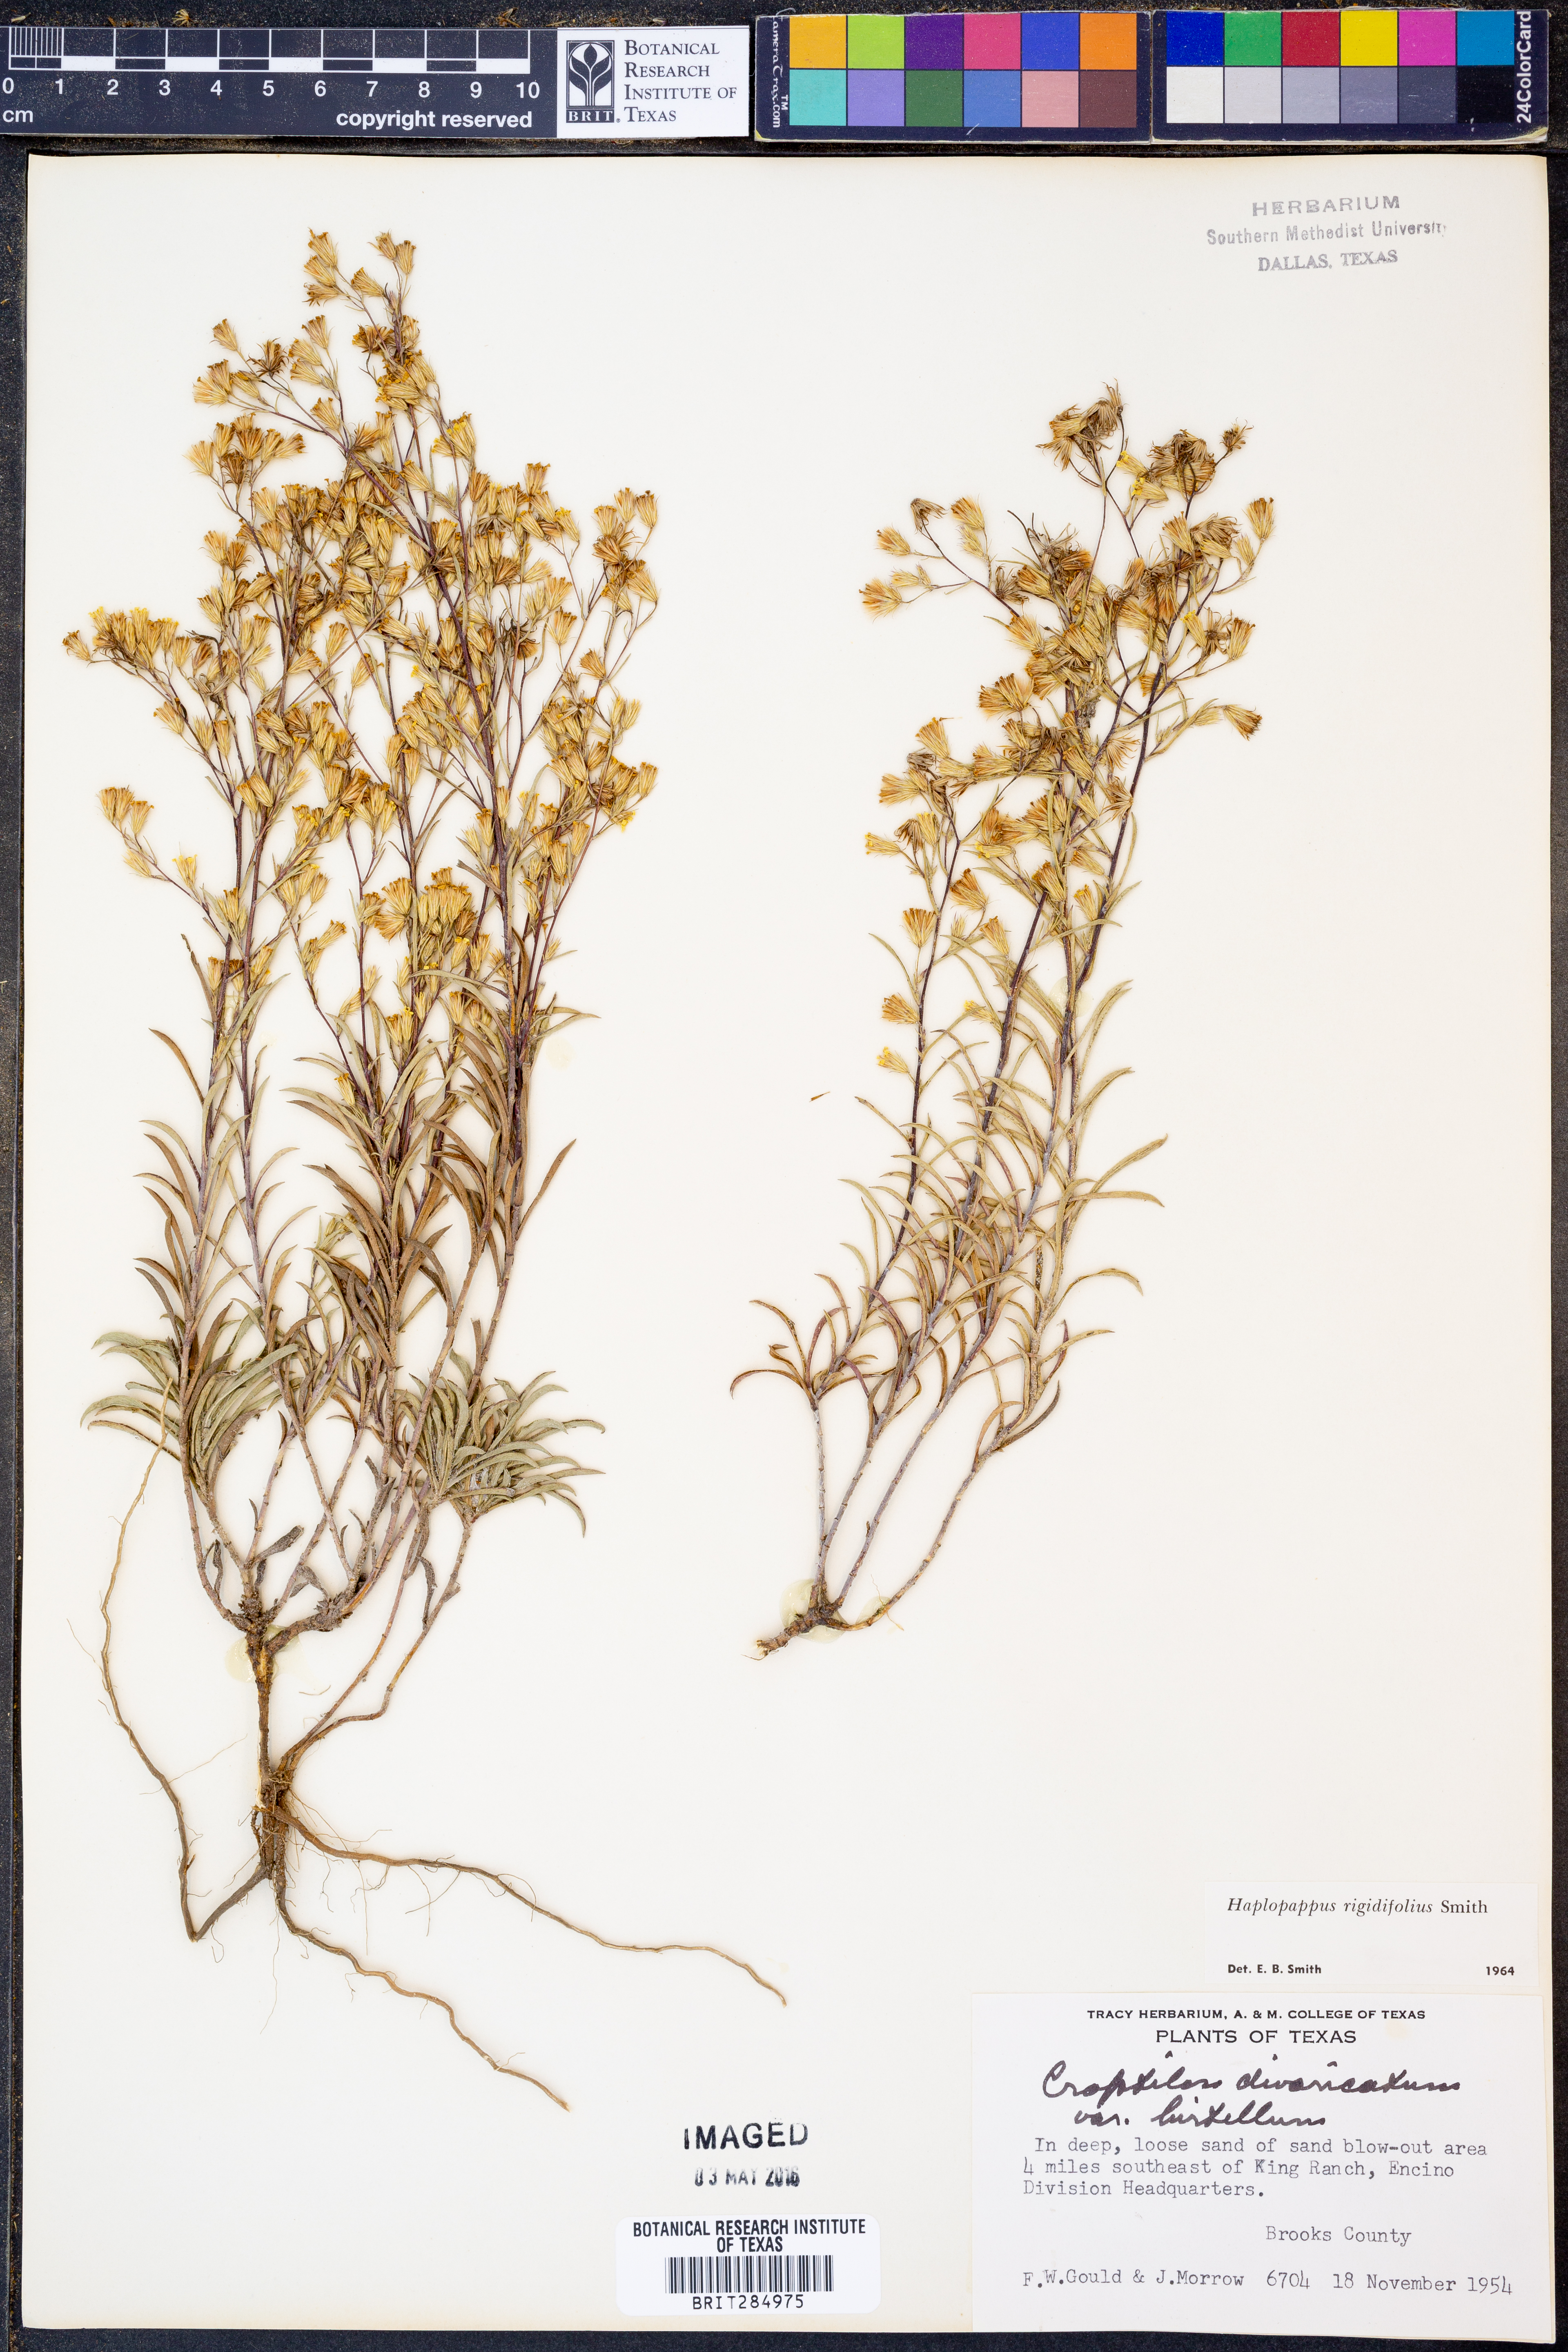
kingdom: Plantae
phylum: Tracheophyta
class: Magnoliopsida
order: Asterales
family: Asteraceae
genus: Croptilon
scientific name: Croptilon rigidifolium
